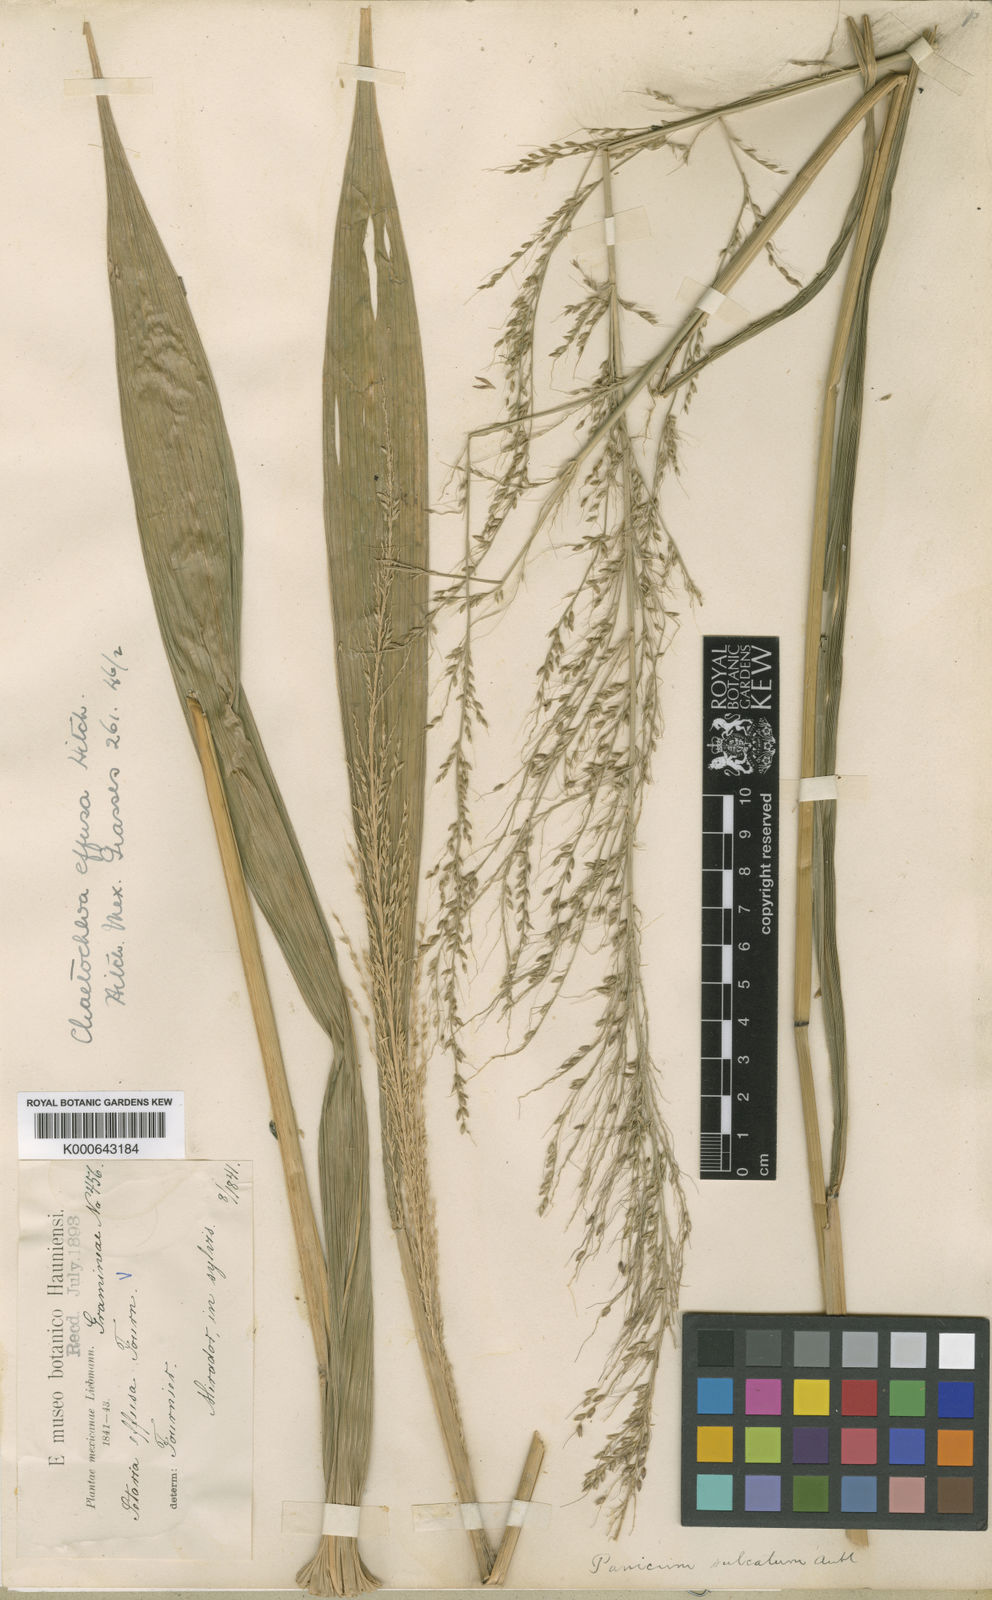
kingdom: Plantae
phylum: Tracheophyta
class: Liliopsida
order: Poales
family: Poaceae
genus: Setaria
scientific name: Setaria palmifolia
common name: Broadleaved bristlegrass
